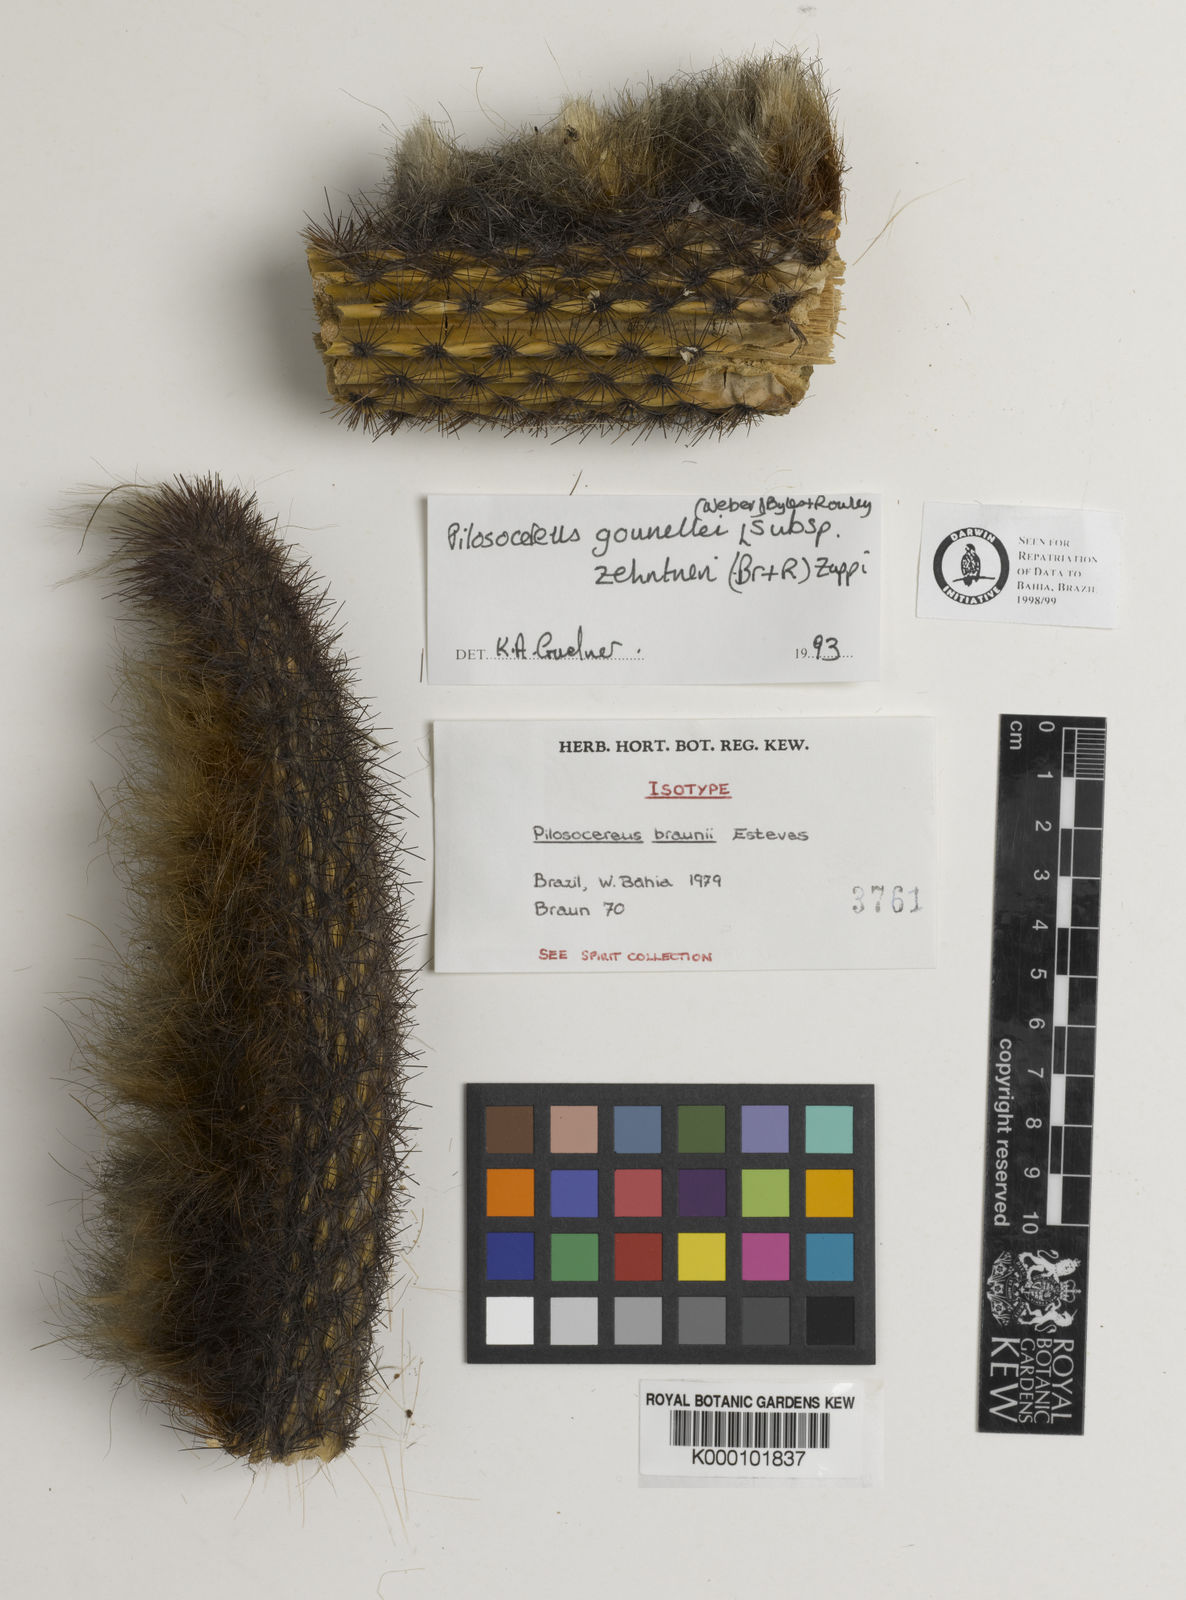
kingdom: Plantae
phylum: Tracheophyta
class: Magnoliopsida
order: Caryophyllales
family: Cactaceae
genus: Xiquexique
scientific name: Xiquexique gounellei
